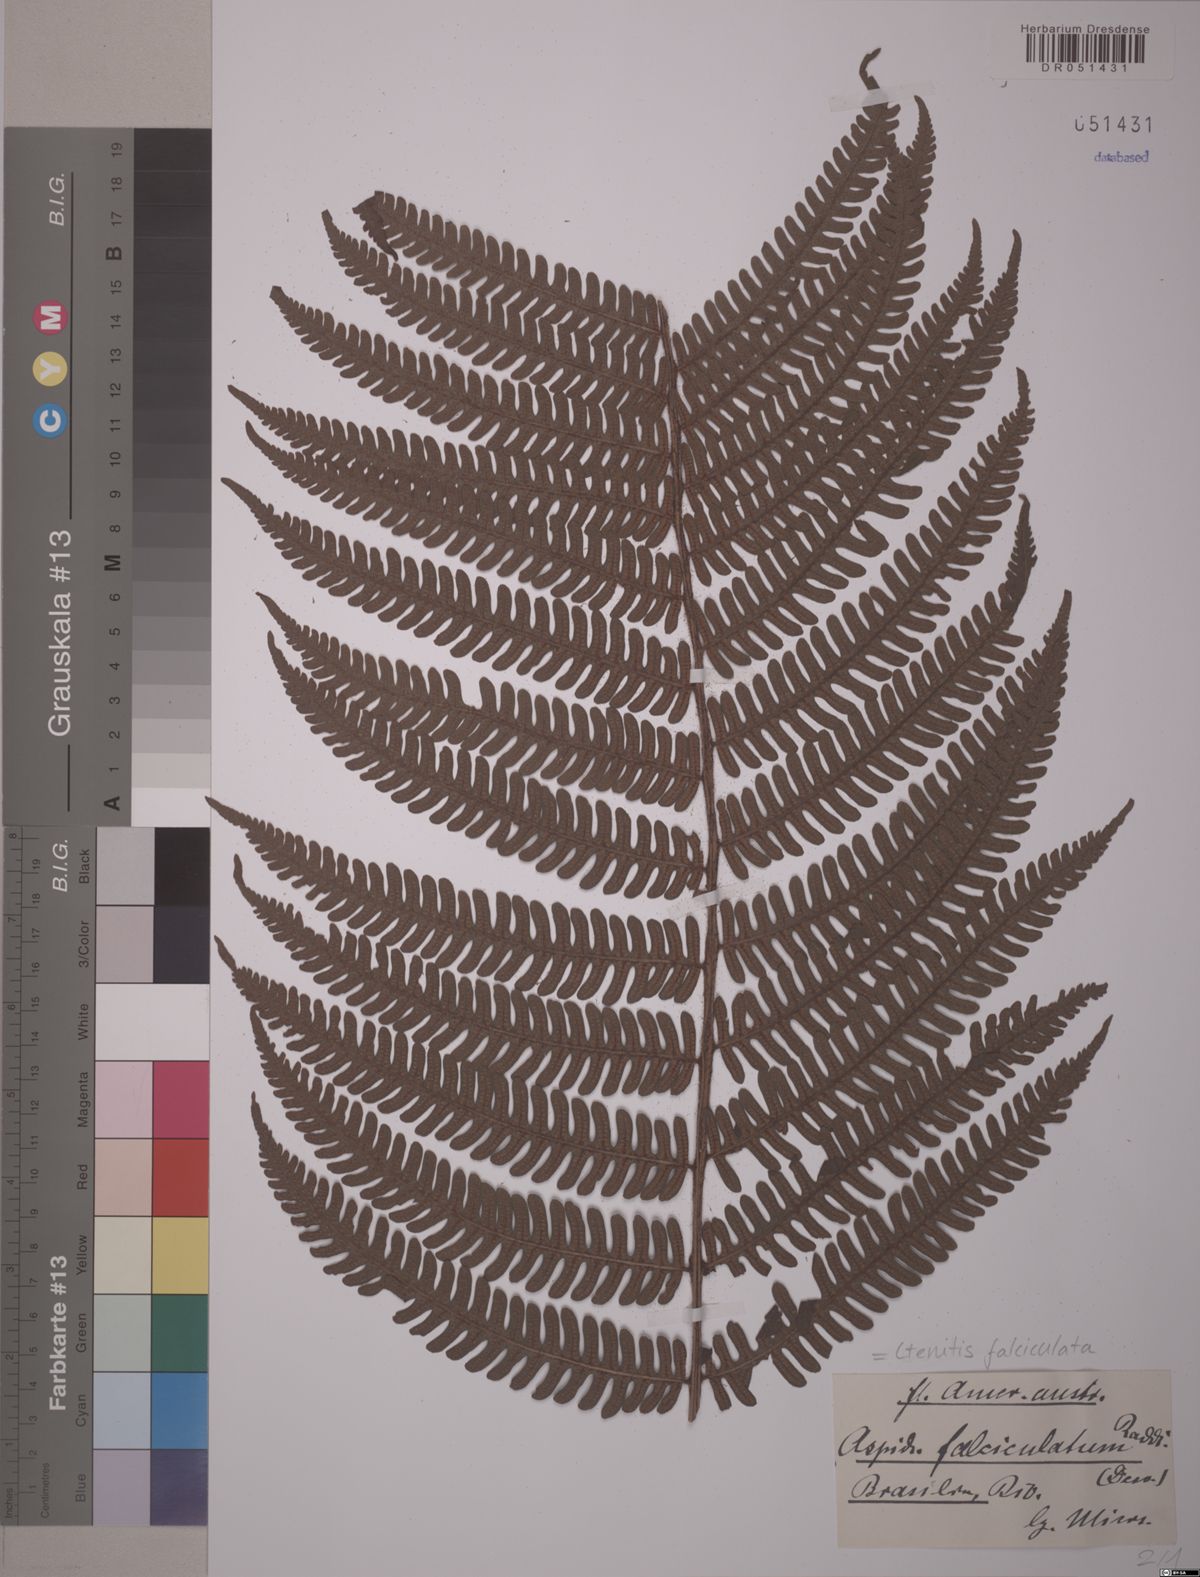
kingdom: Plantae
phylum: Tracheophyta
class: Polypodiopsida
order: Polypodiales
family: Dryopteridaceae
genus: Ctenitis
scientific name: Ctenitis falciculata
